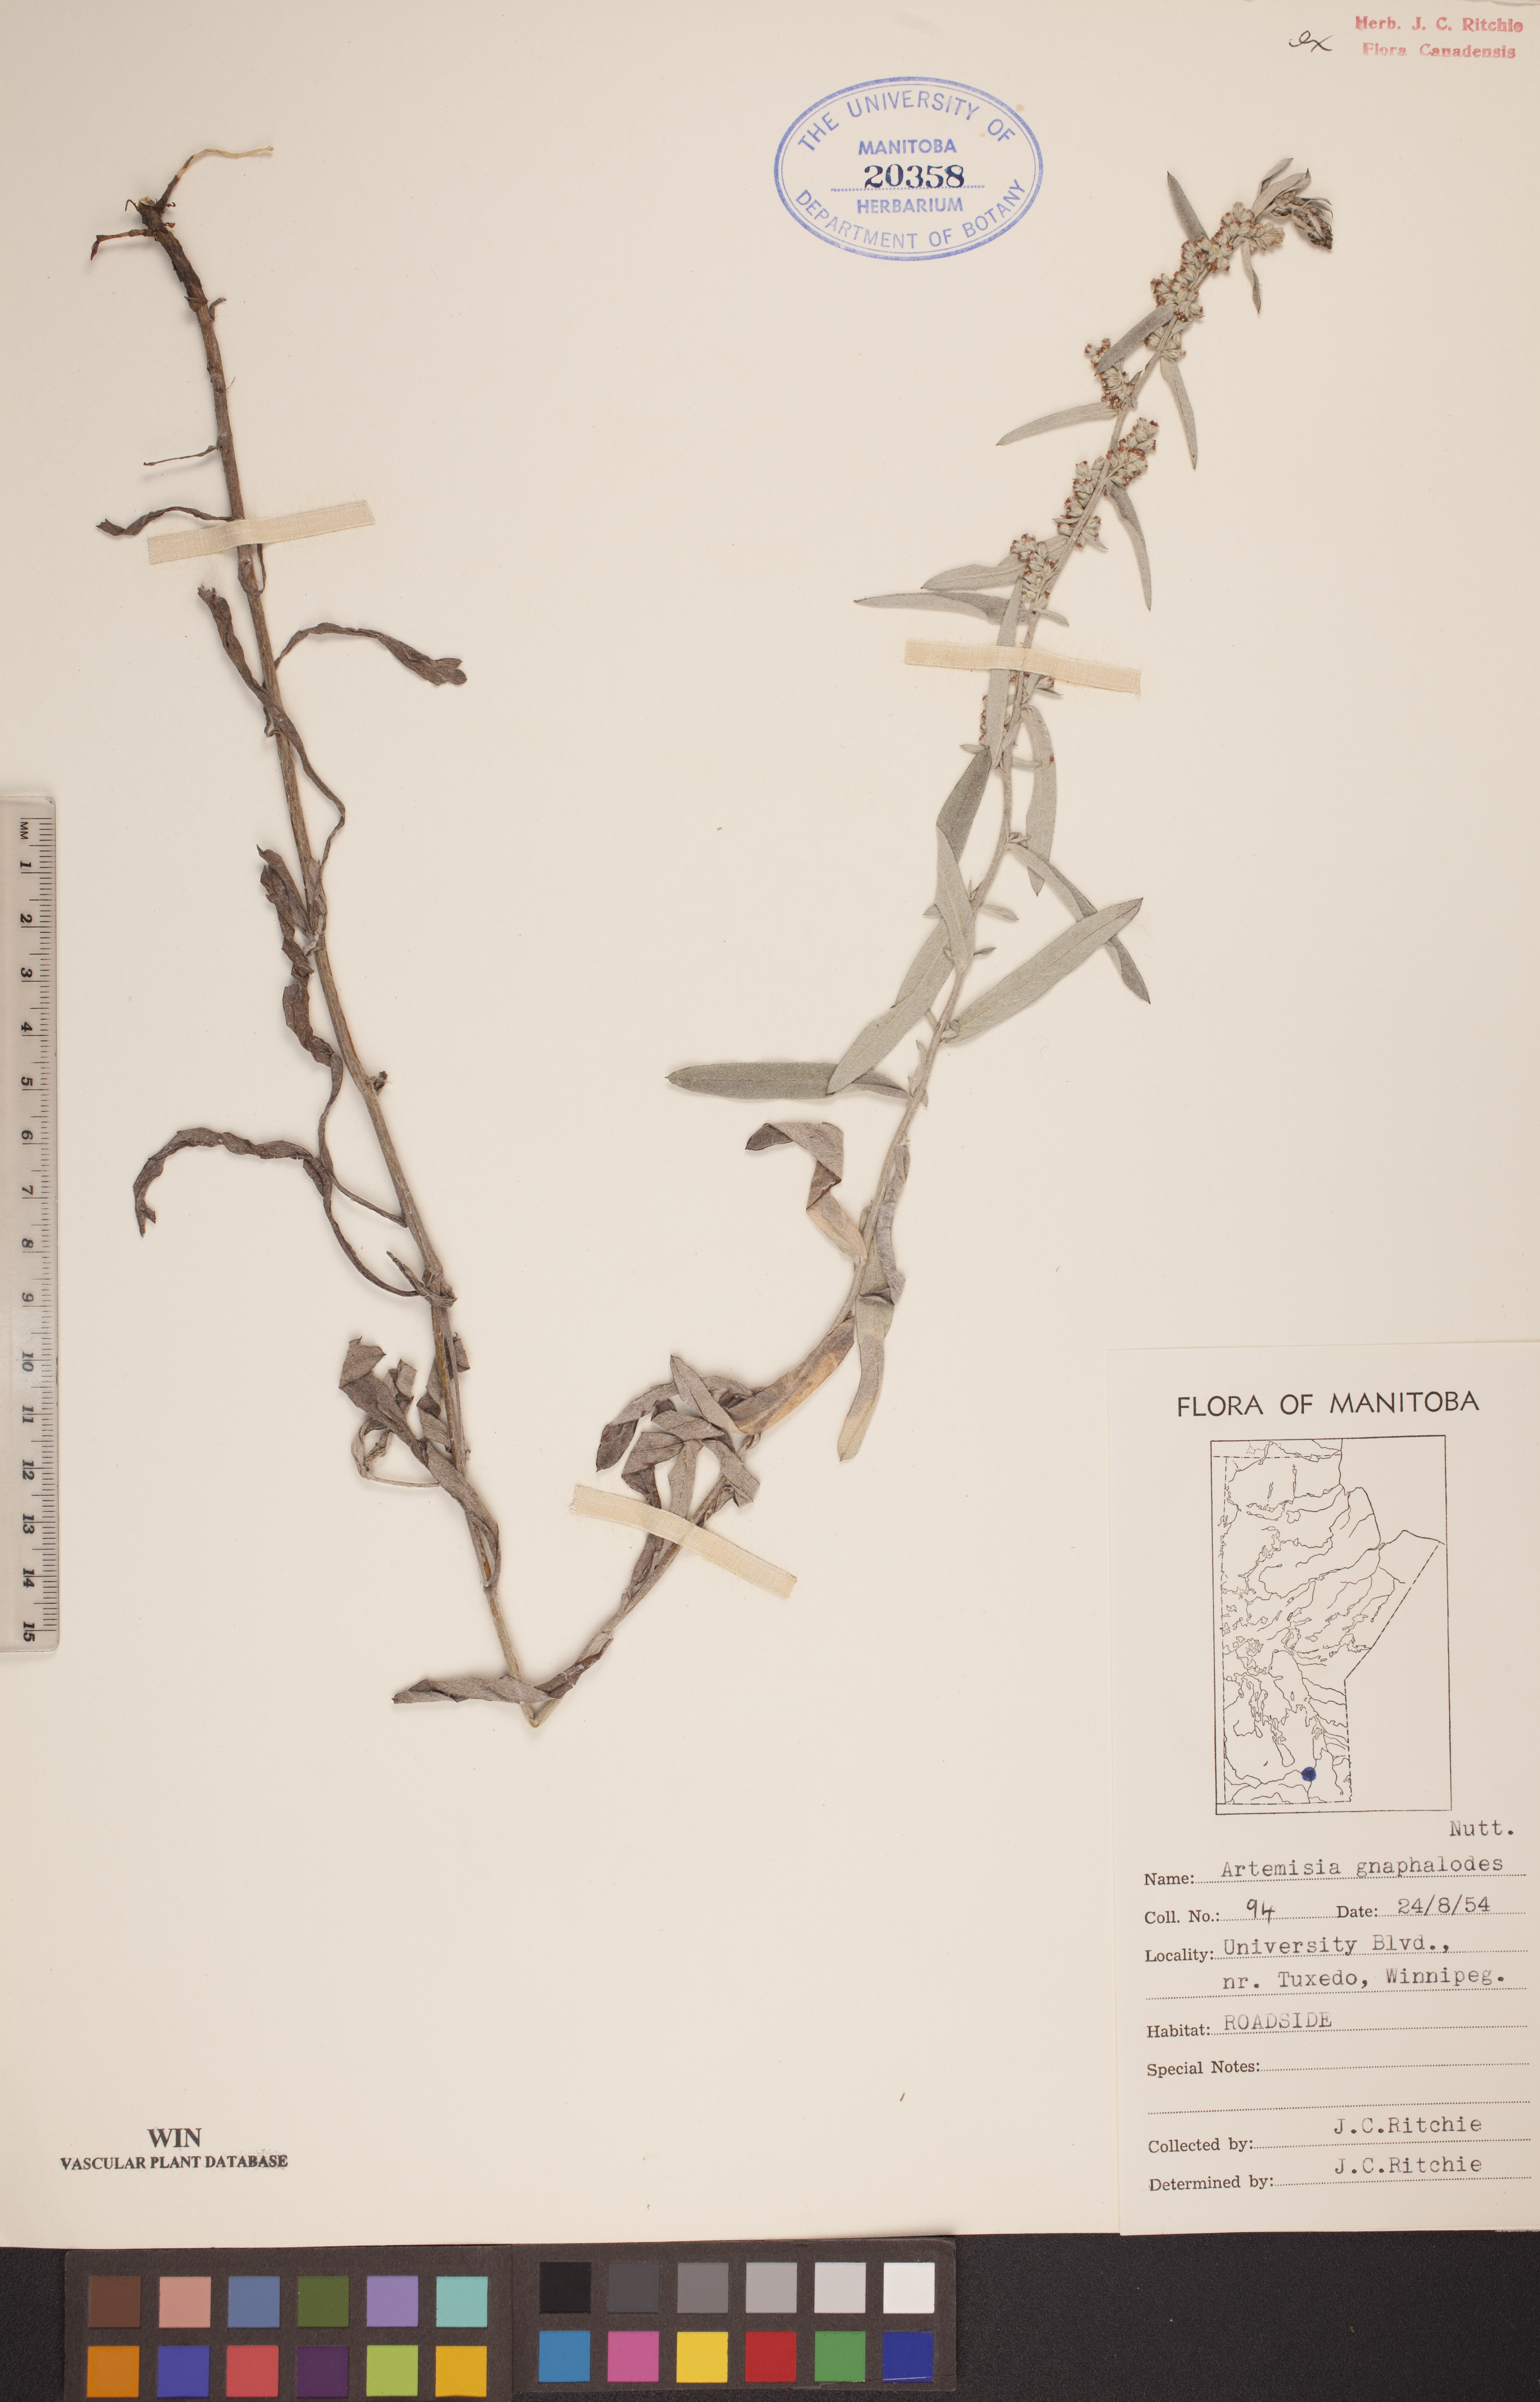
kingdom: Plantae
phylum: Tracheophyta
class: Magnoliopsida
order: Asterales
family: Asteraceae
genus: Artemisia
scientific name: Artemisia ludoviciana
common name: Western mugwort
